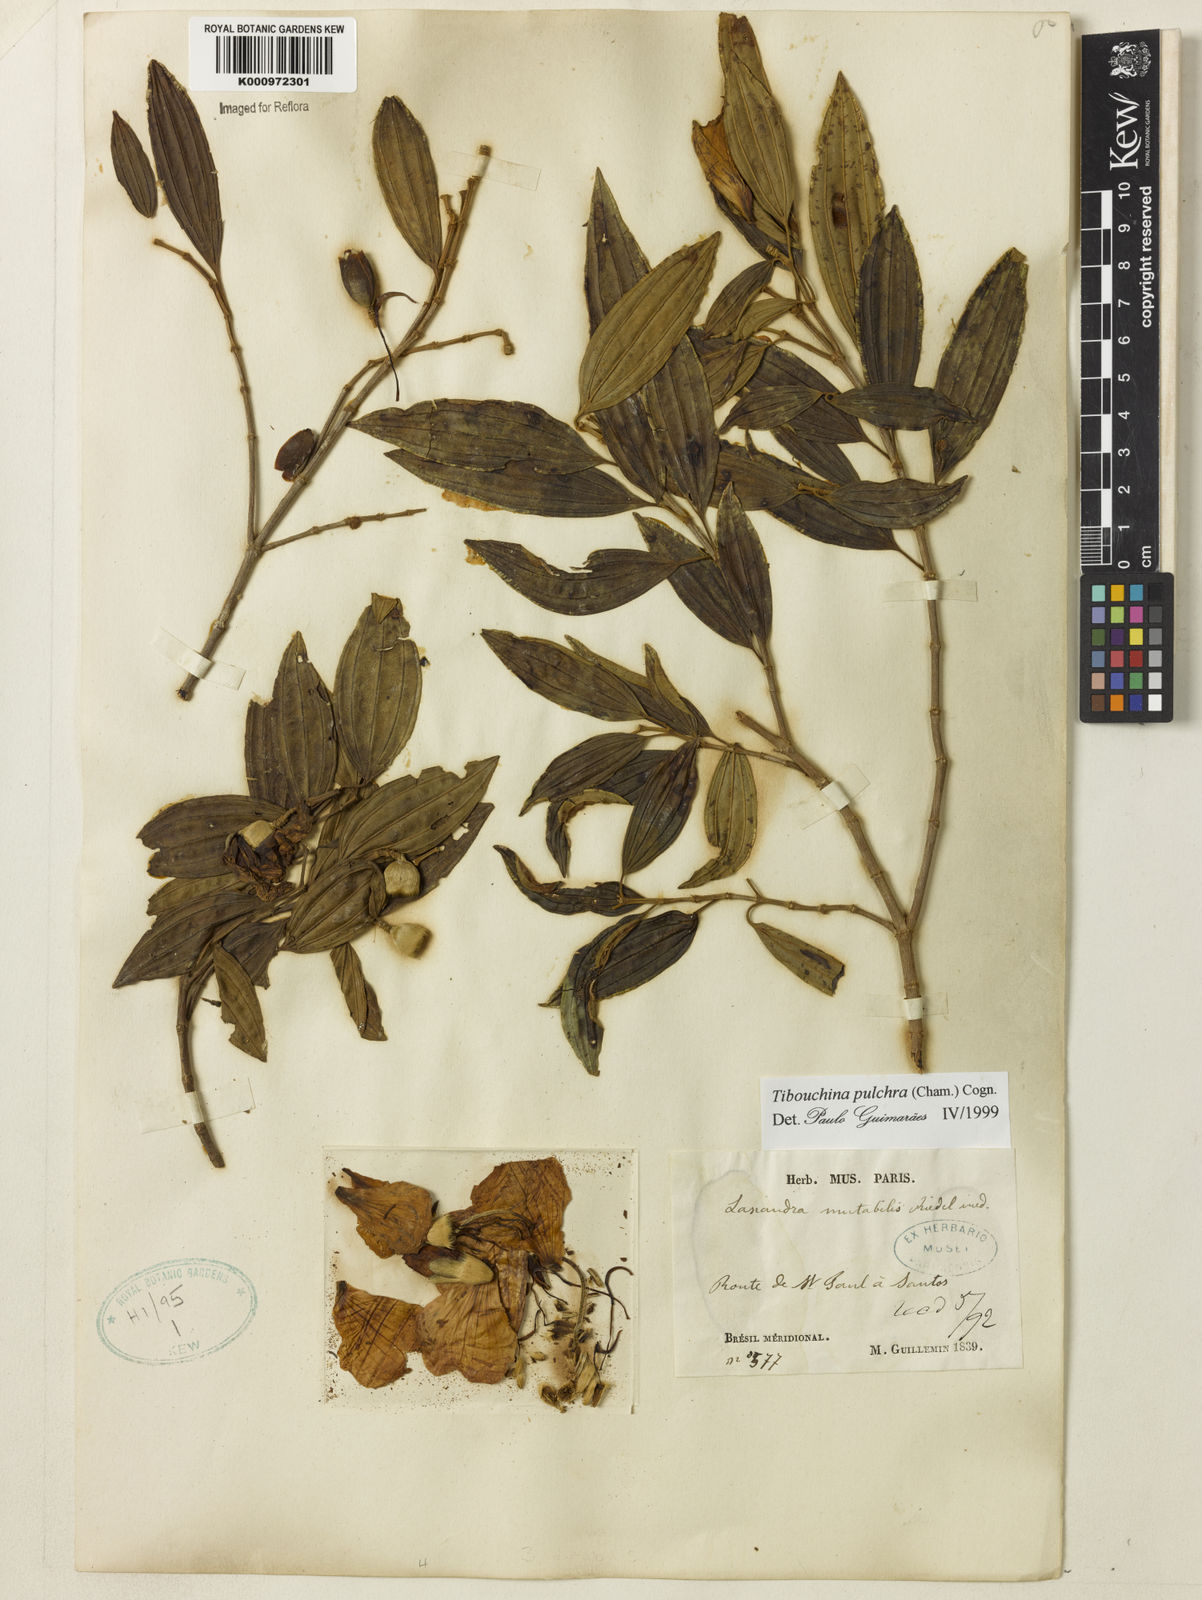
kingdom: Plantae
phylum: Tracheophyta
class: Magnoliopsida
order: Myrtales
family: Melastomataceae
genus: Pleroma
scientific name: Pleroma raddianum
